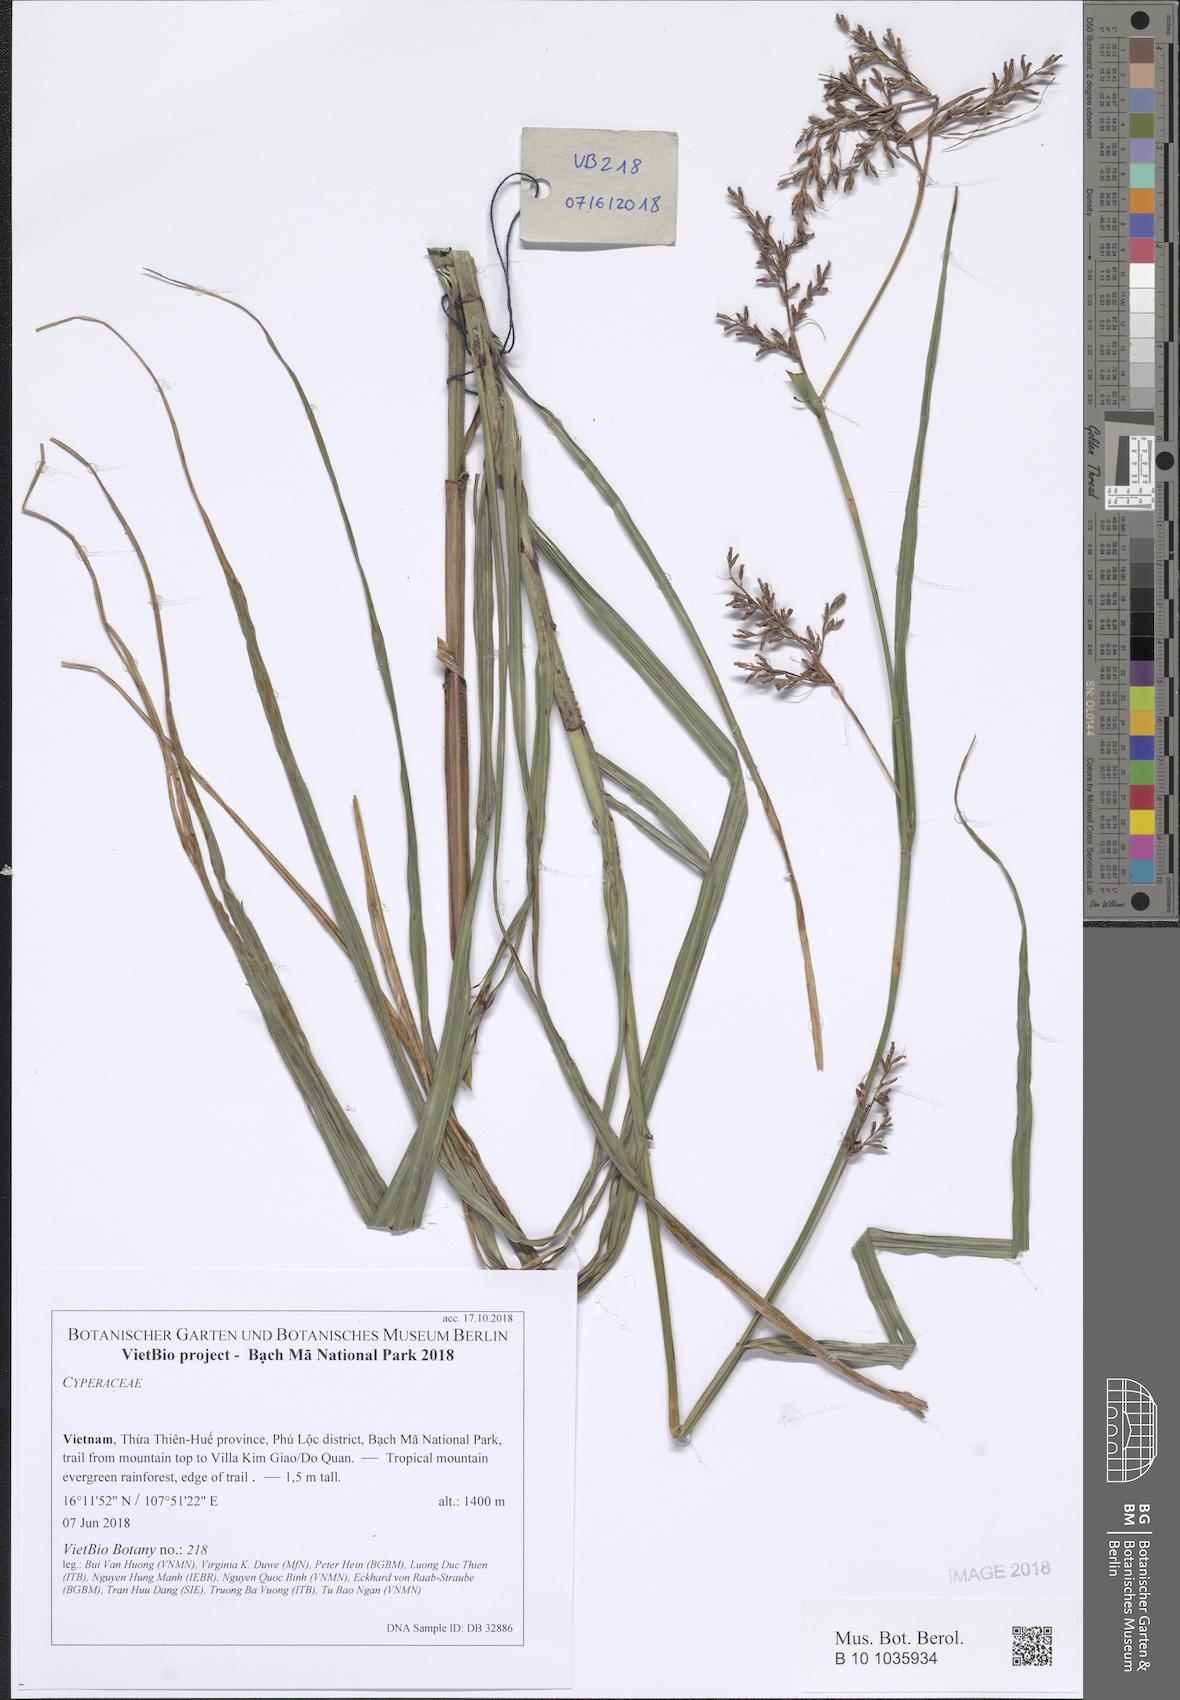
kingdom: Plantae
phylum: Tracheophyta
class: Liliopsida
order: Poales
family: Cyperaceae
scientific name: Cyperaceae
